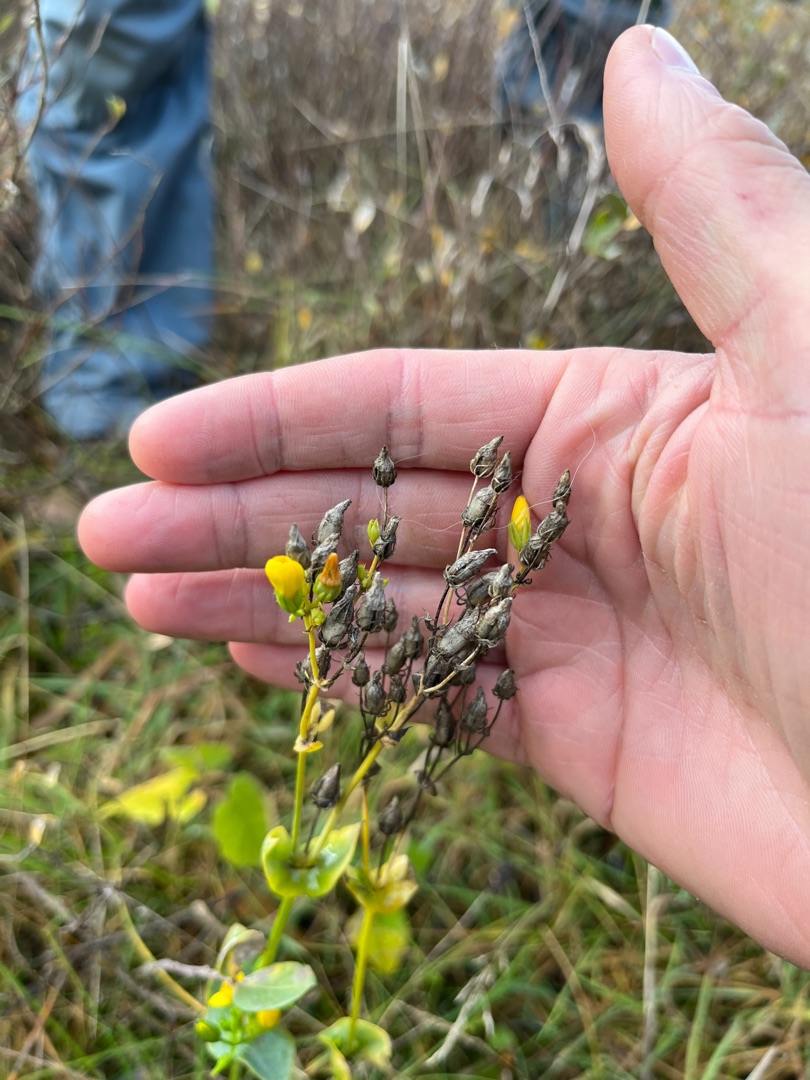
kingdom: Plantae
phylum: Tracheophyta
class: Magnoliopsida
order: Gentianales
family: Gentianaceae
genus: Blackstonia
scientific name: Blackstonia perfoliata
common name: Almindelig gyldenurt
